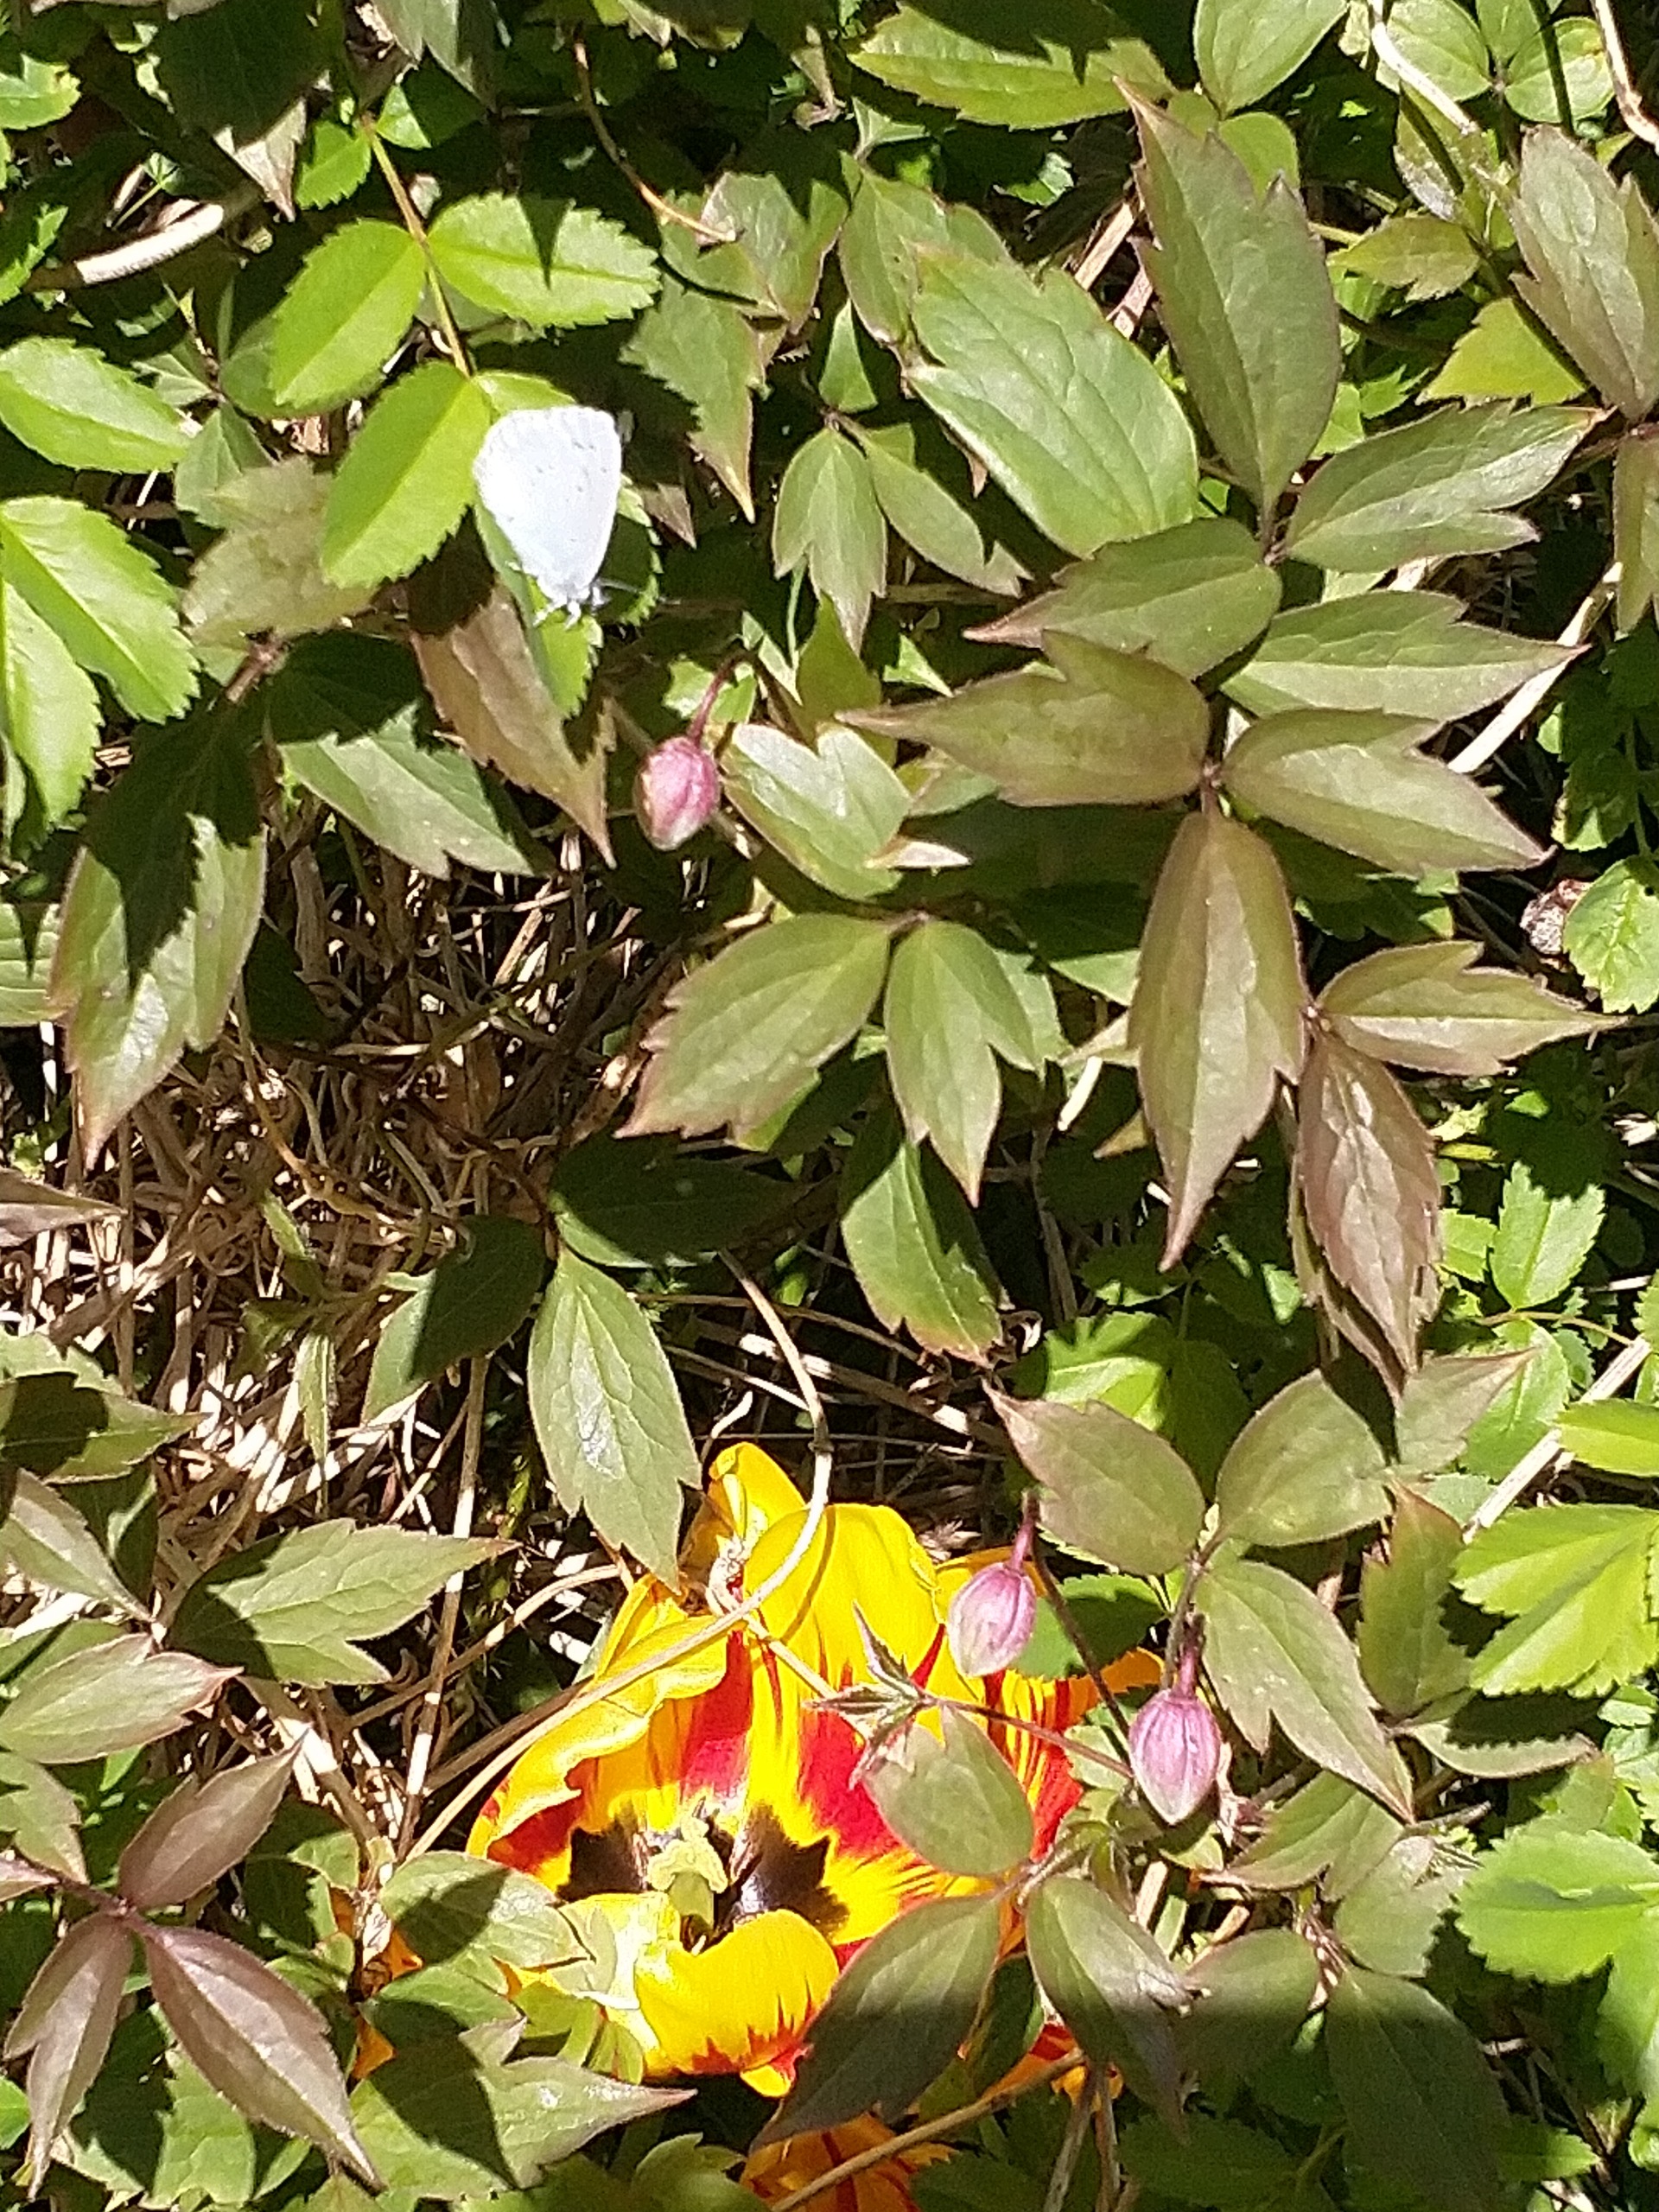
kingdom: Animalia
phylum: Arthropoda
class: Insecta
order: Lepidoptera
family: Lycaenidae
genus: Celastrina
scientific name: Celastrina argiolus
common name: Skovblåfugl
